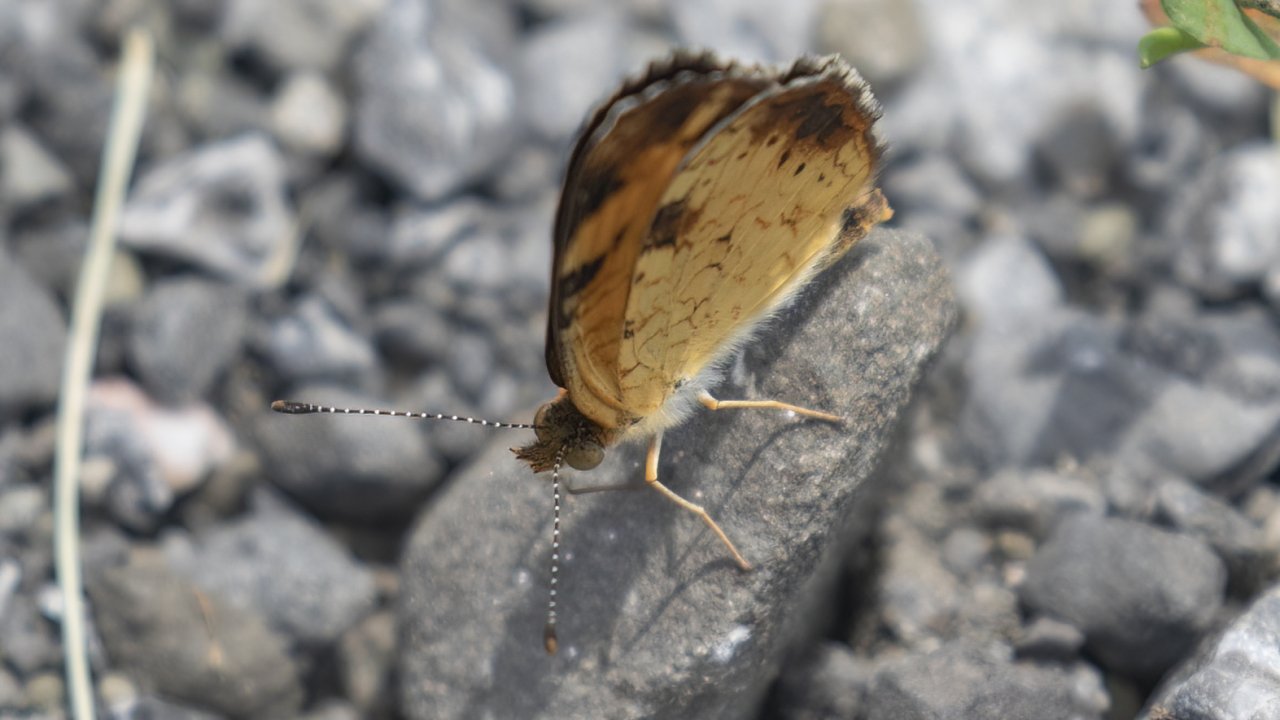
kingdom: Animalia
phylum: Arthropoda
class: Insecta
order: Lepidoptera
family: Nymphalidae
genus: Phyciodes
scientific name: Phyciodes tharos
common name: Northern Crescent
